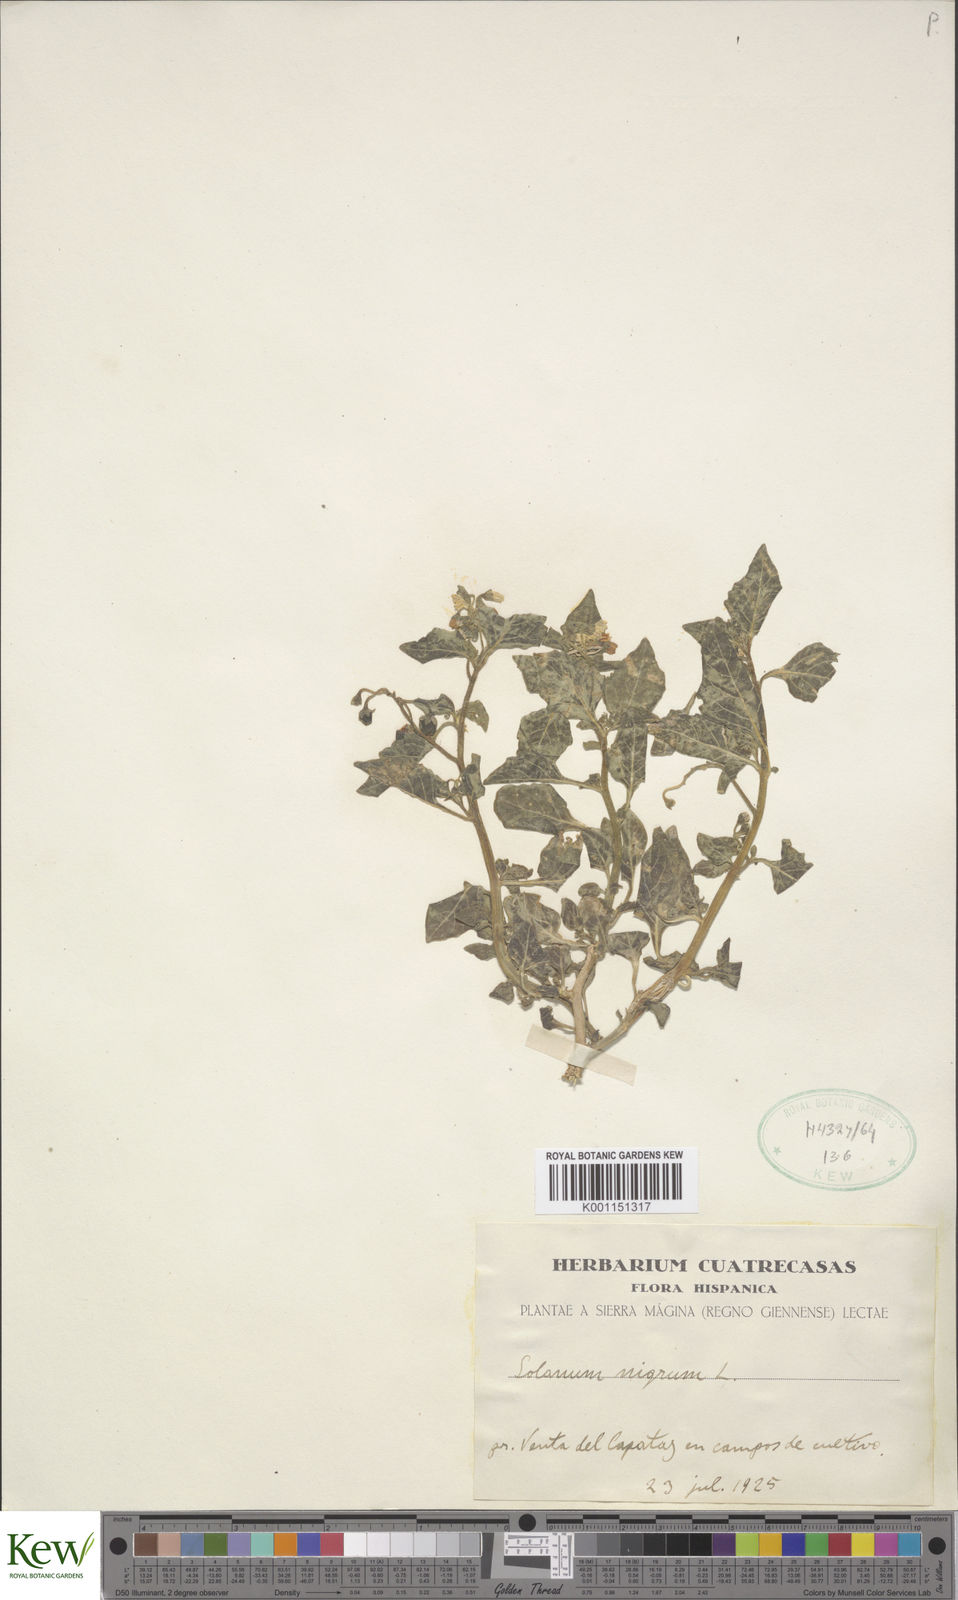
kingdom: Plantae
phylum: Tracheophyta
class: Magnoliopsida
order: Solanales
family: Solanaceae
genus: Solanum
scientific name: Solanum nigrum
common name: Black nightshade
